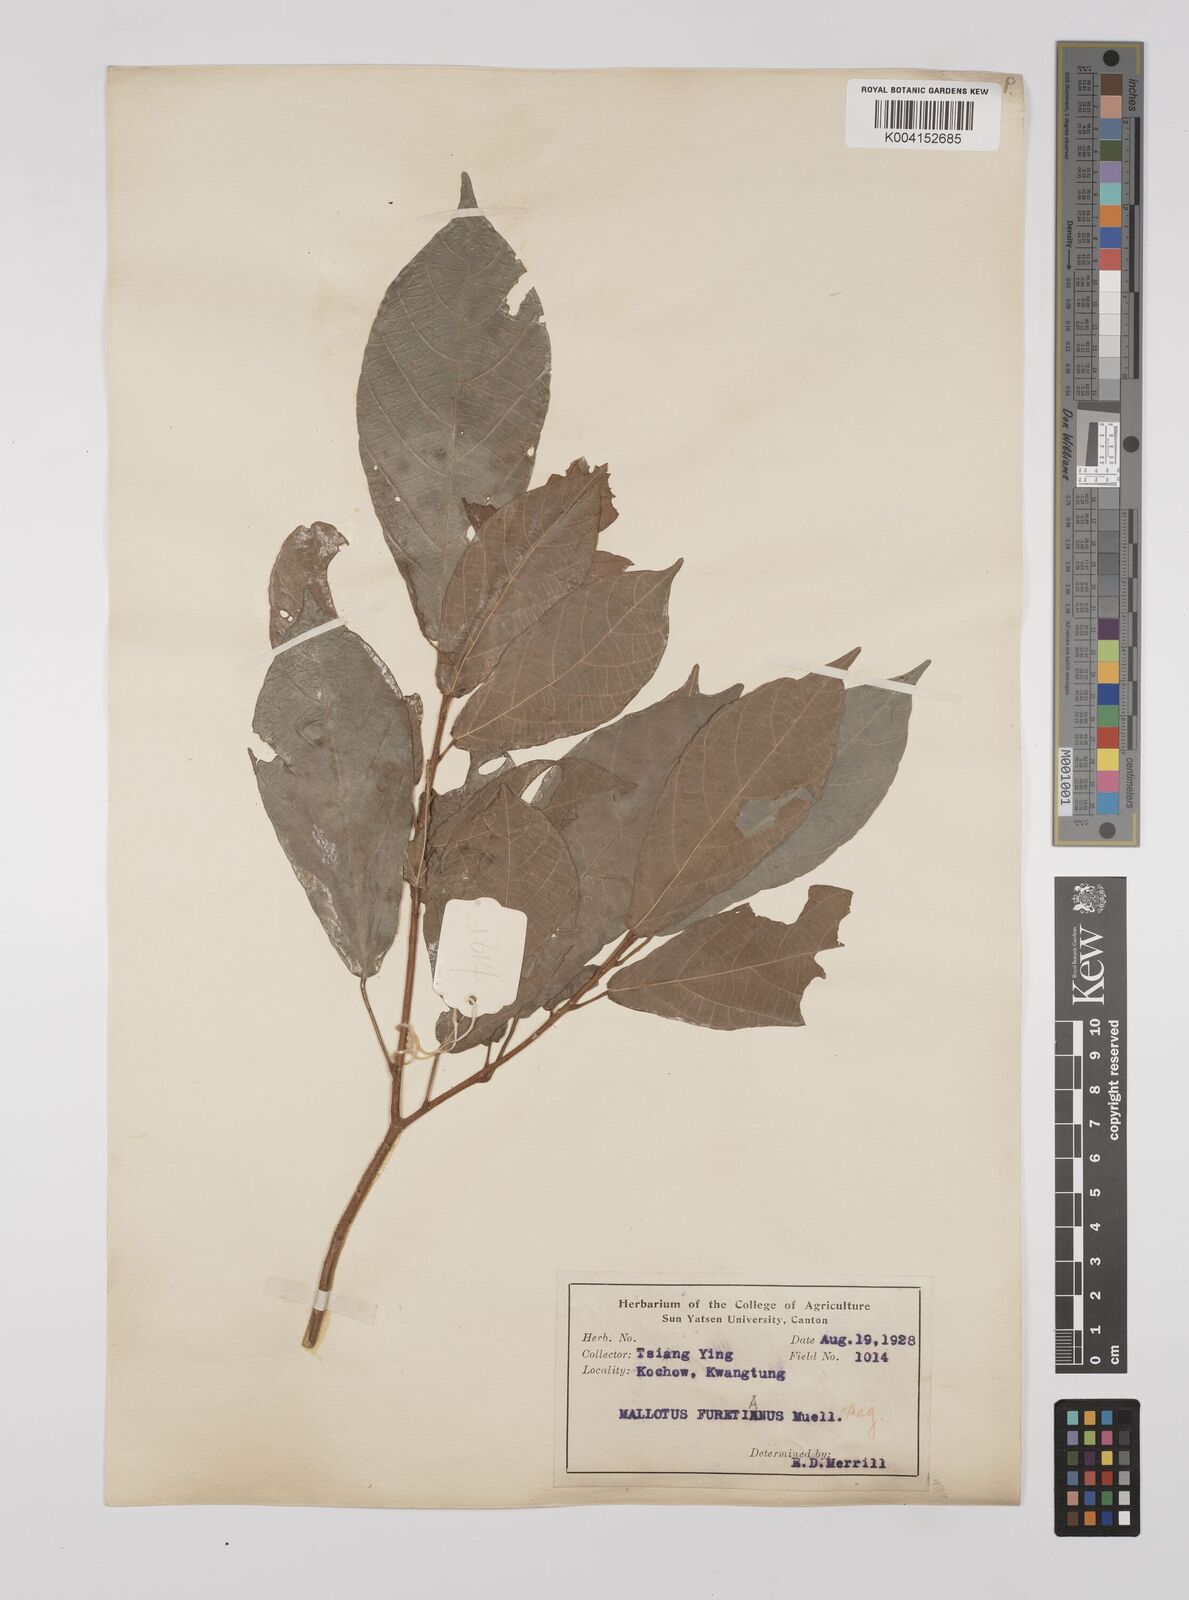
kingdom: Plantae
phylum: Tracheophyta
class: Magnoliopsida
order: Malpighiales
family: Euphorbiaceae
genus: Mallotus
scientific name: Mallotus peltatus
